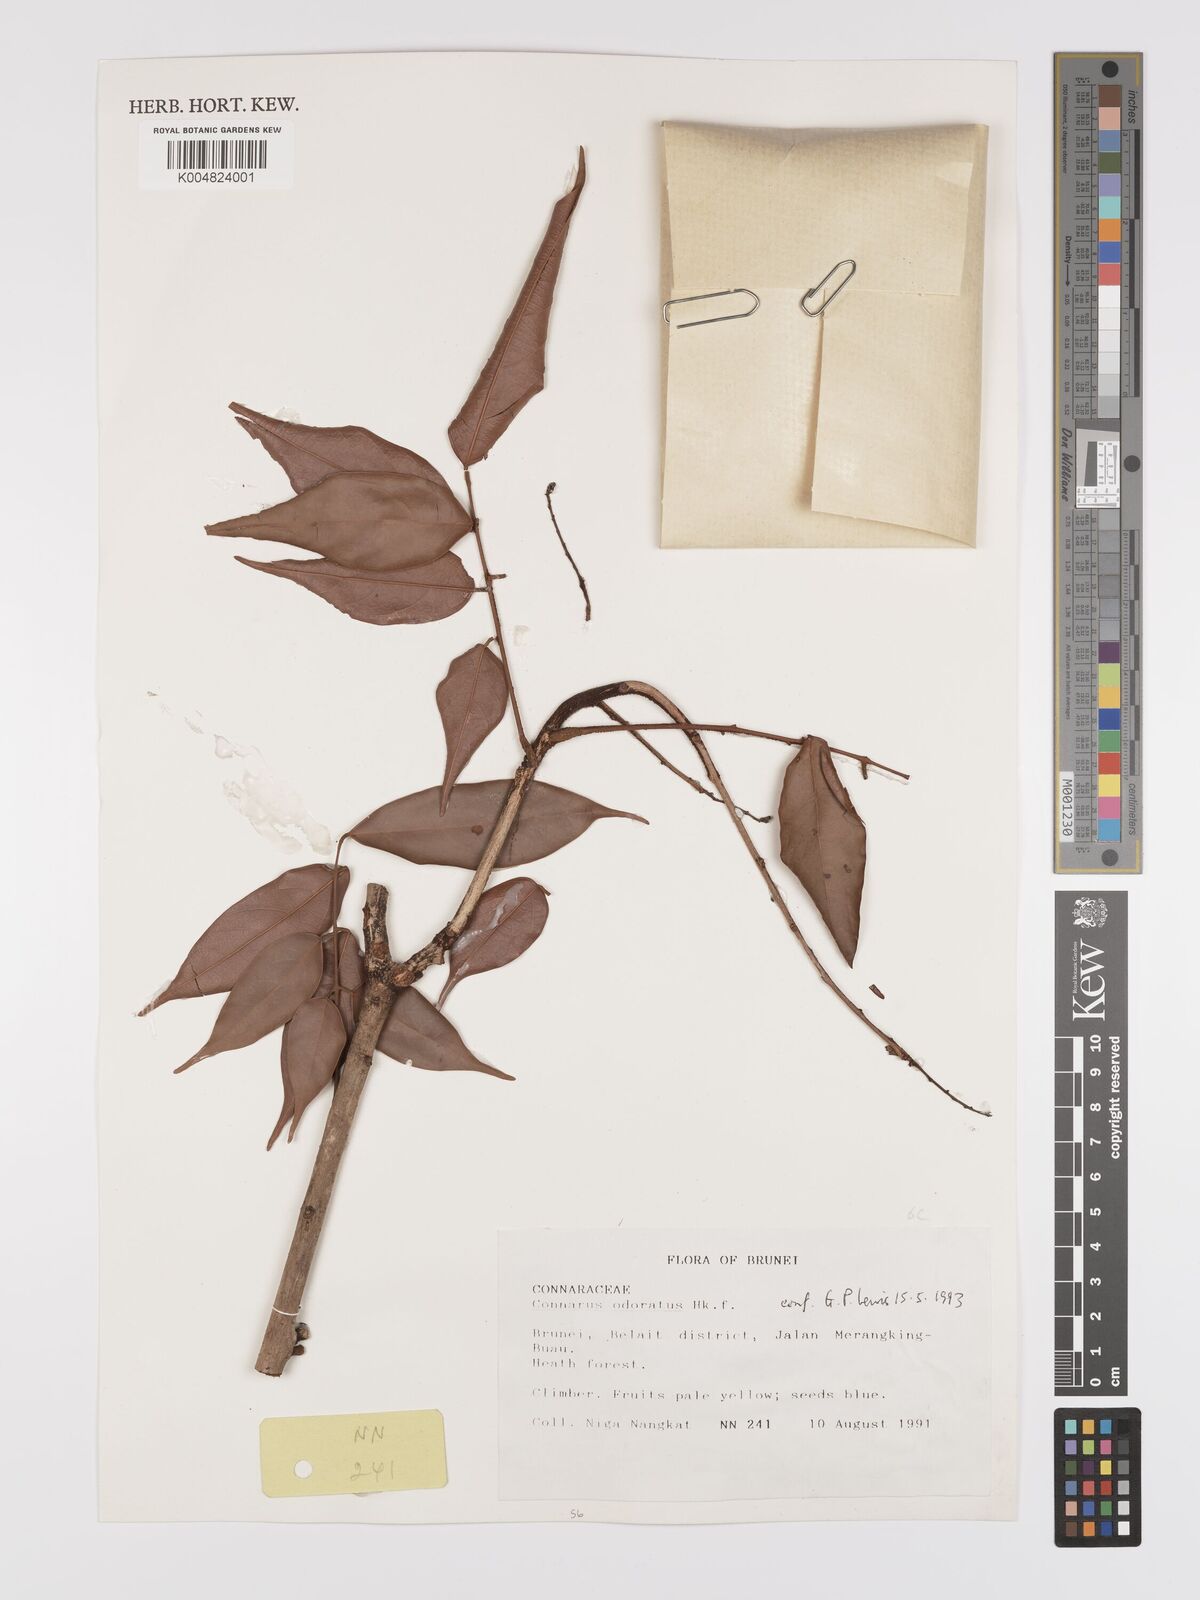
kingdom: Plantae
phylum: Tracheophyta
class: Magnoliopsida
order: Oxalidales
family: Connaraceae
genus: Connarus
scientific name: Connarus odoratus
